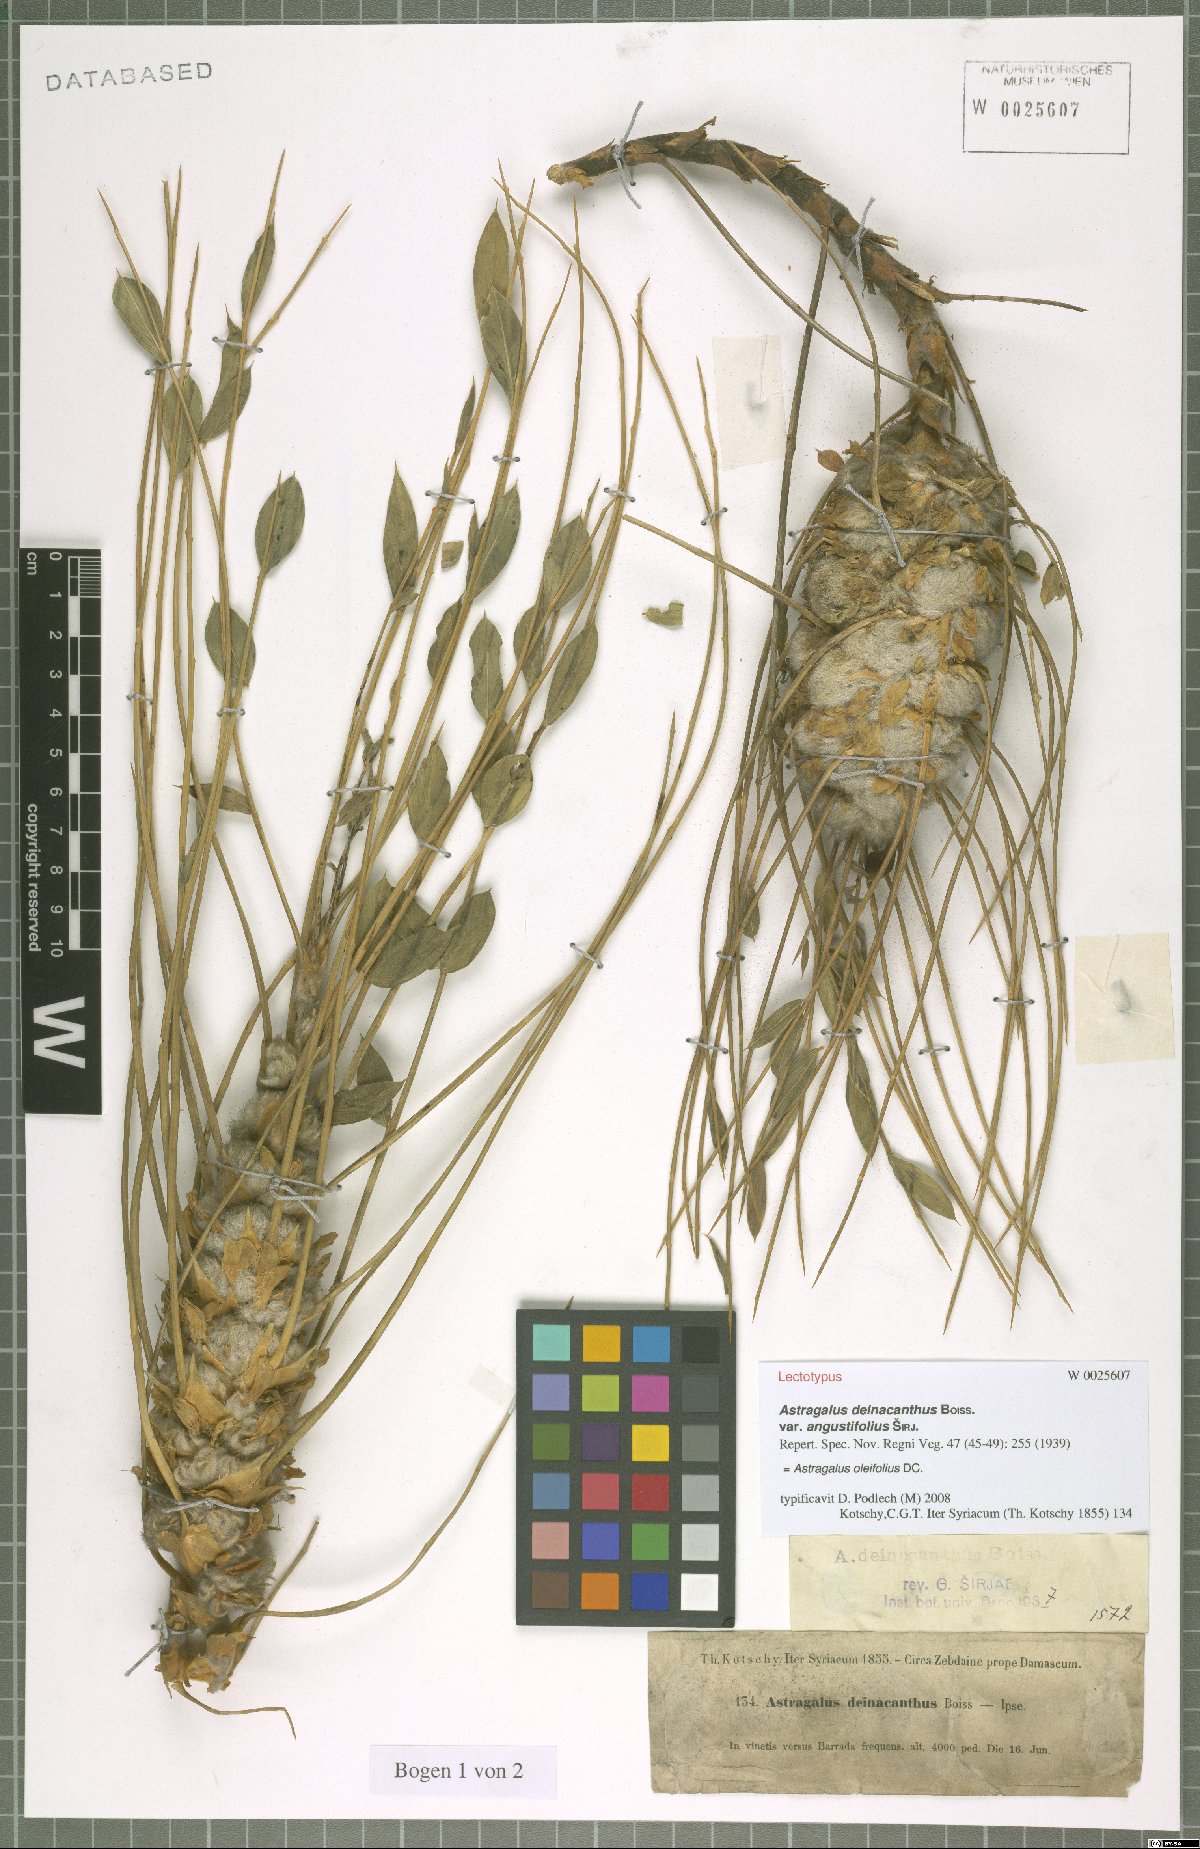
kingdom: Plantae
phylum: Tracheophyta
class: Magnoliopsida
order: Fabales
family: Fabaceae
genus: Astragalus
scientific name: Astragalus oleifolius
